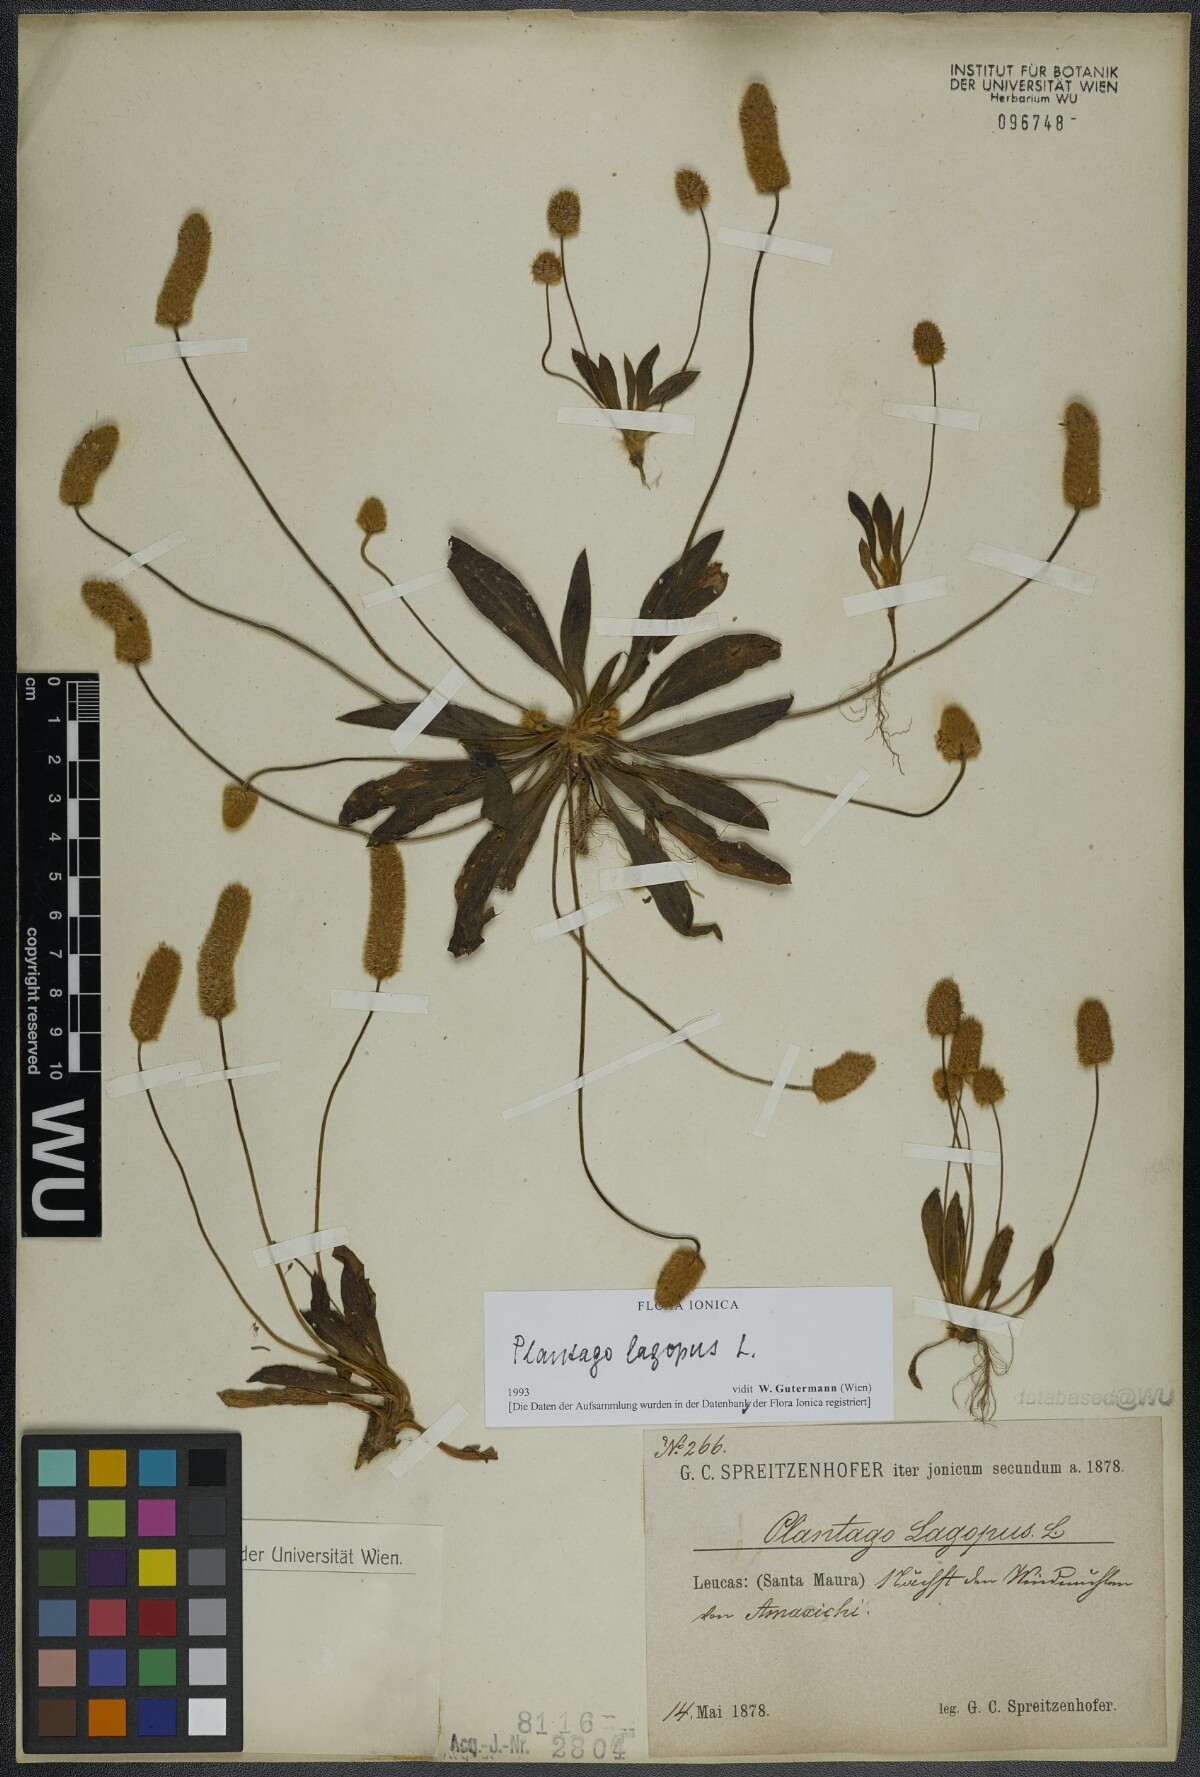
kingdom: Plantae
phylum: Tracheophyta
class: Magnoliopsida
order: Lamiales
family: Plantaginaceae
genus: Plantago
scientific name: Plantago lagopus
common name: Hare-foot plantain
